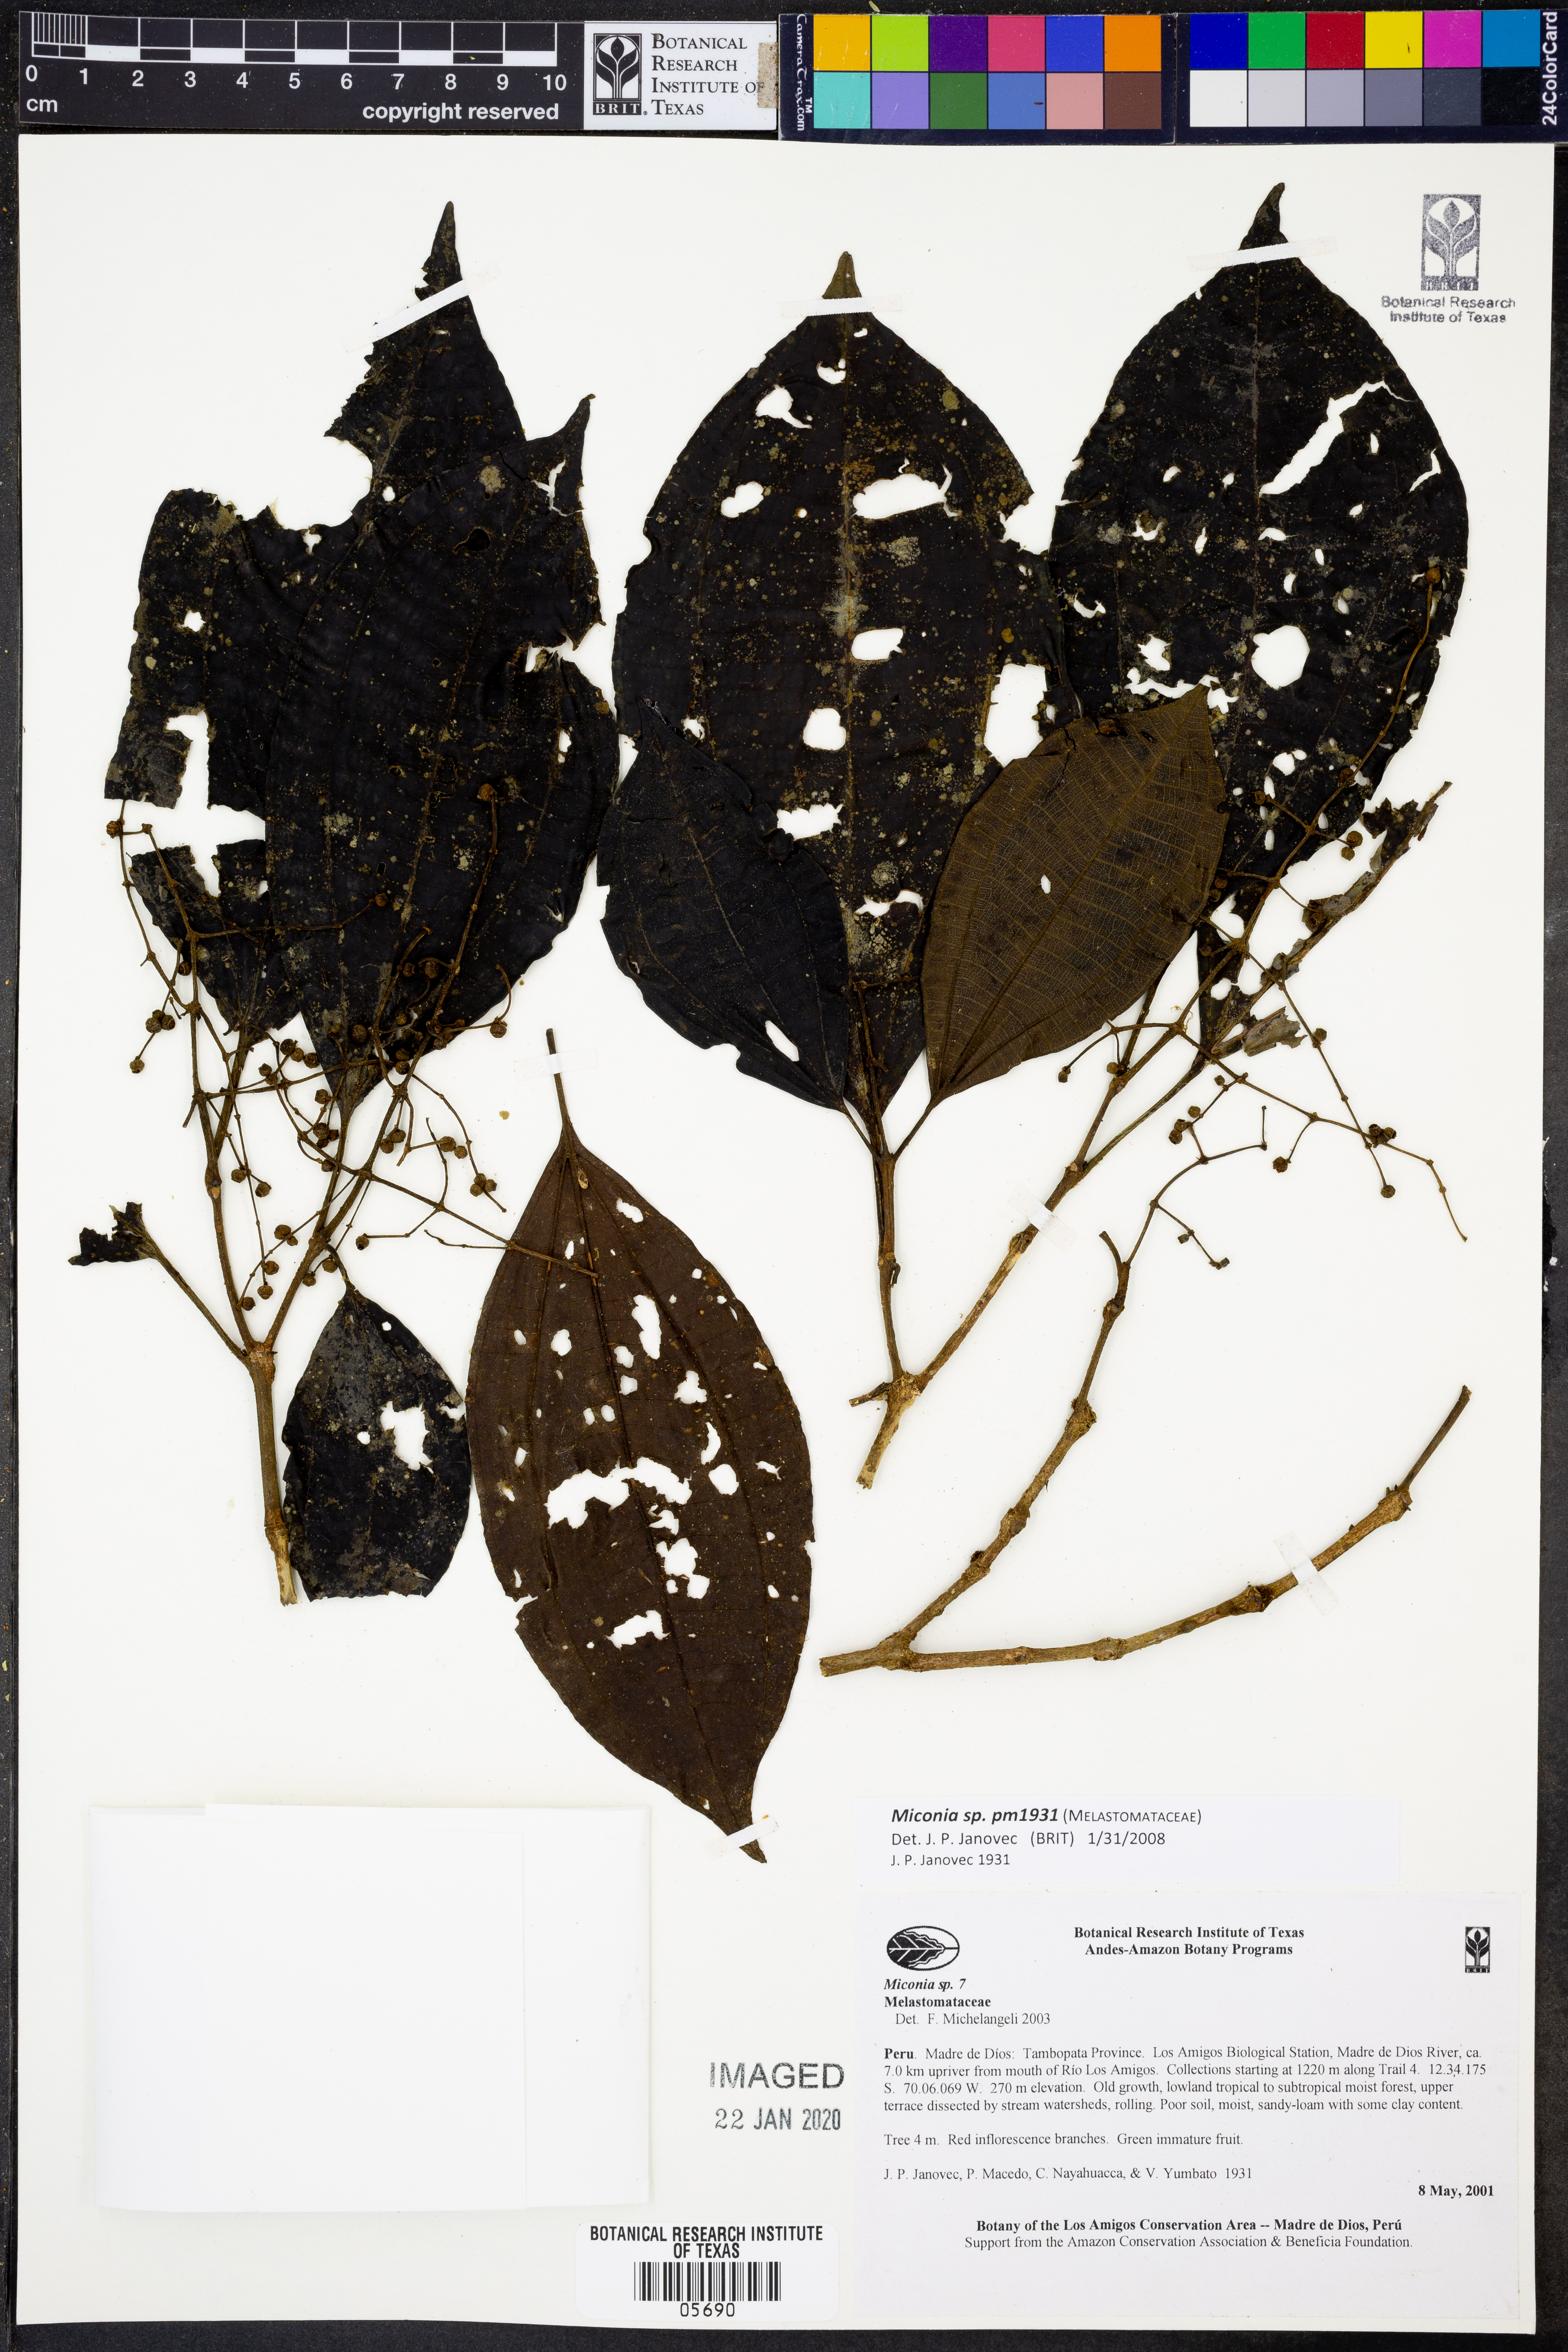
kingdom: Plantae
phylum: Tracheophyta
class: Magnoliopsida
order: Myrtales
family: Melastomataceae
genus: Miconia
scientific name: Miconia
